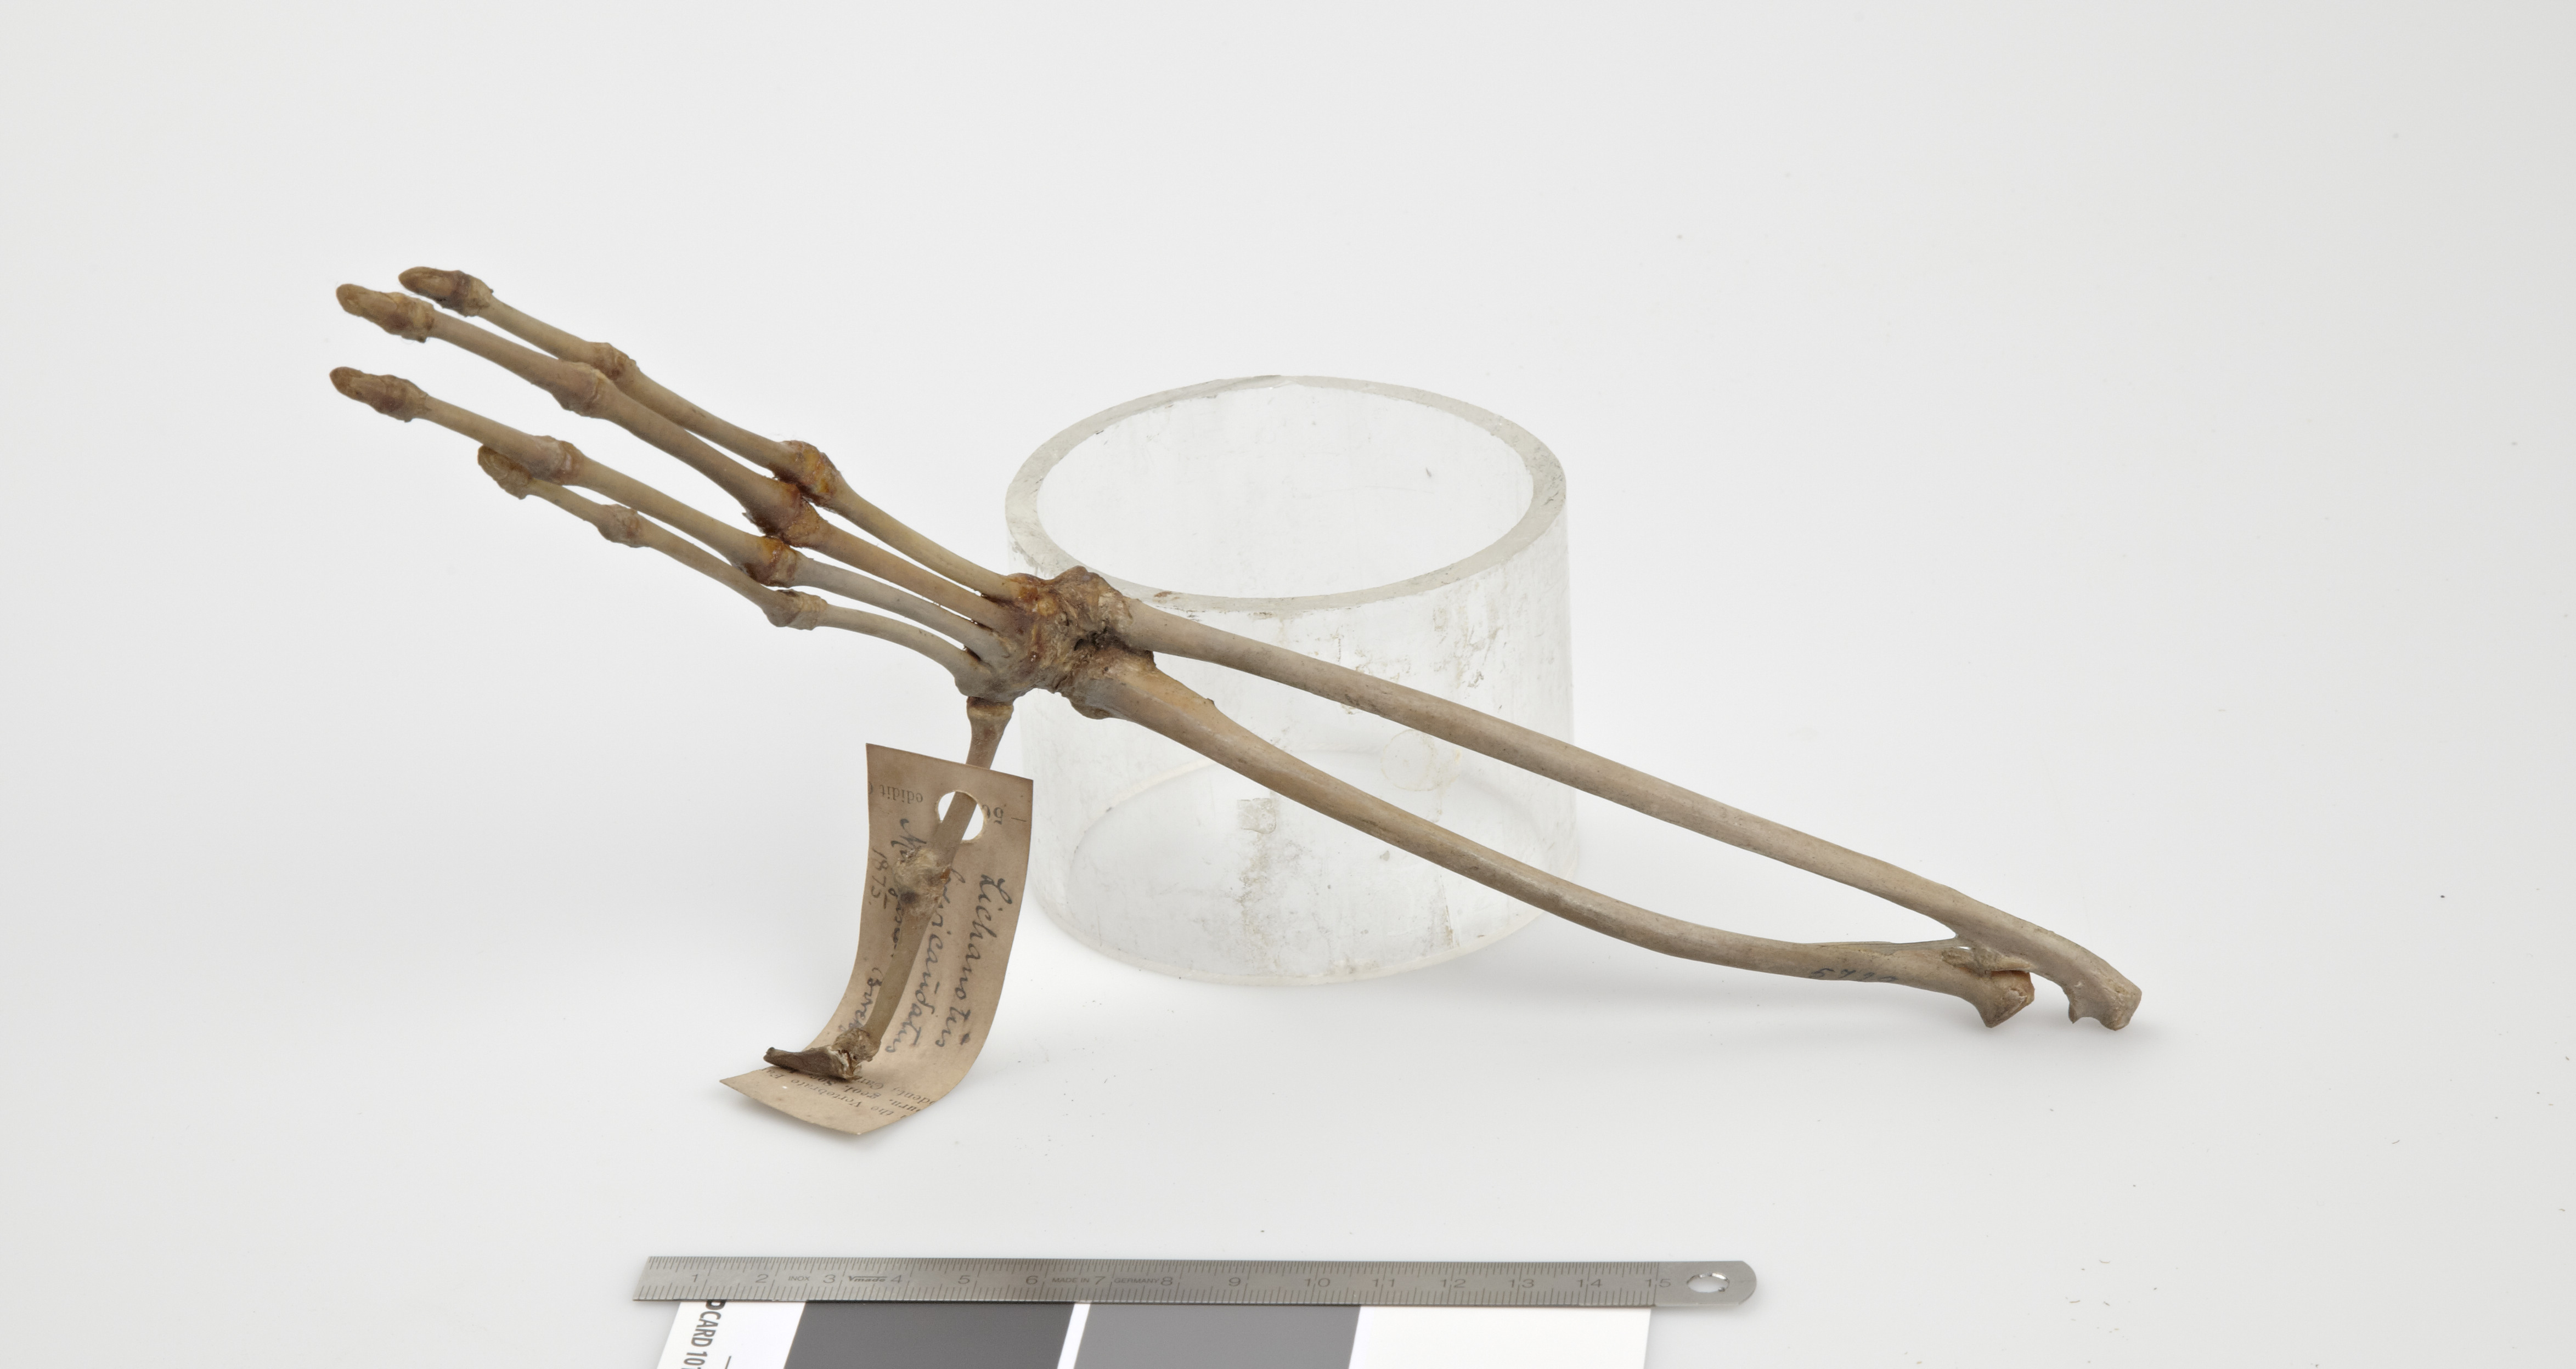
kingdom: Animalia
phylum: Chordata
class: Mammalia
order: Primates
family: Indriidae
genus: Indri
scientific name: Indri indri
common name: Indri
